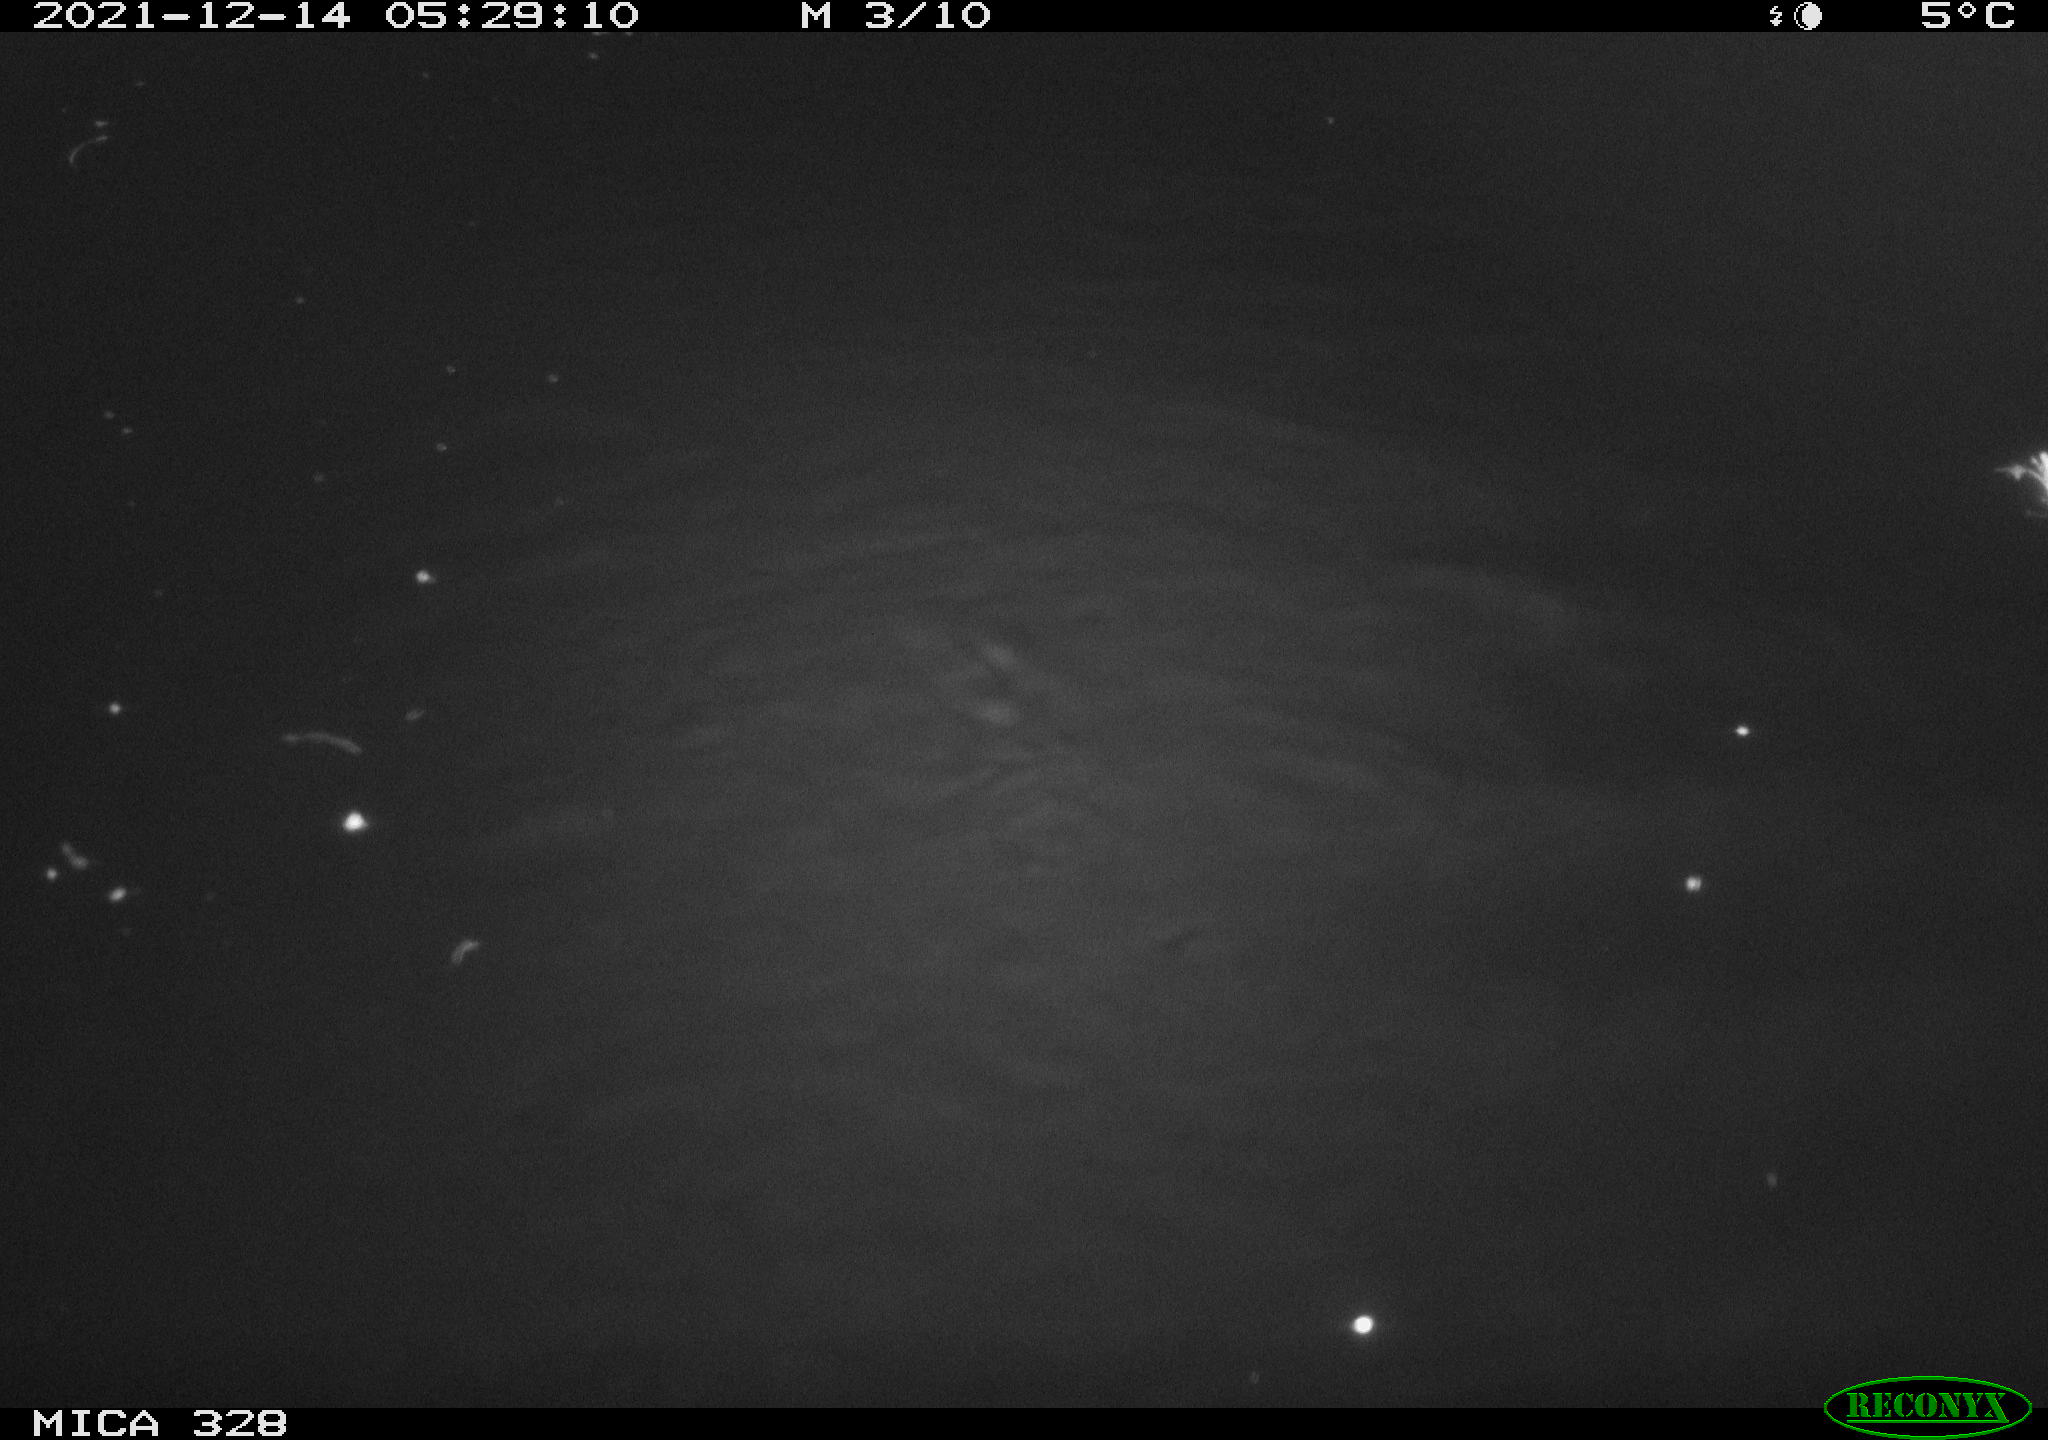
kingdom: Animalia
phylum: Chordata
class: Mammalia
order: Rodentia
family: Cricetidae
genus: Ondatra
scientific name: Ondatra zibethicus
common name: Muskrat
